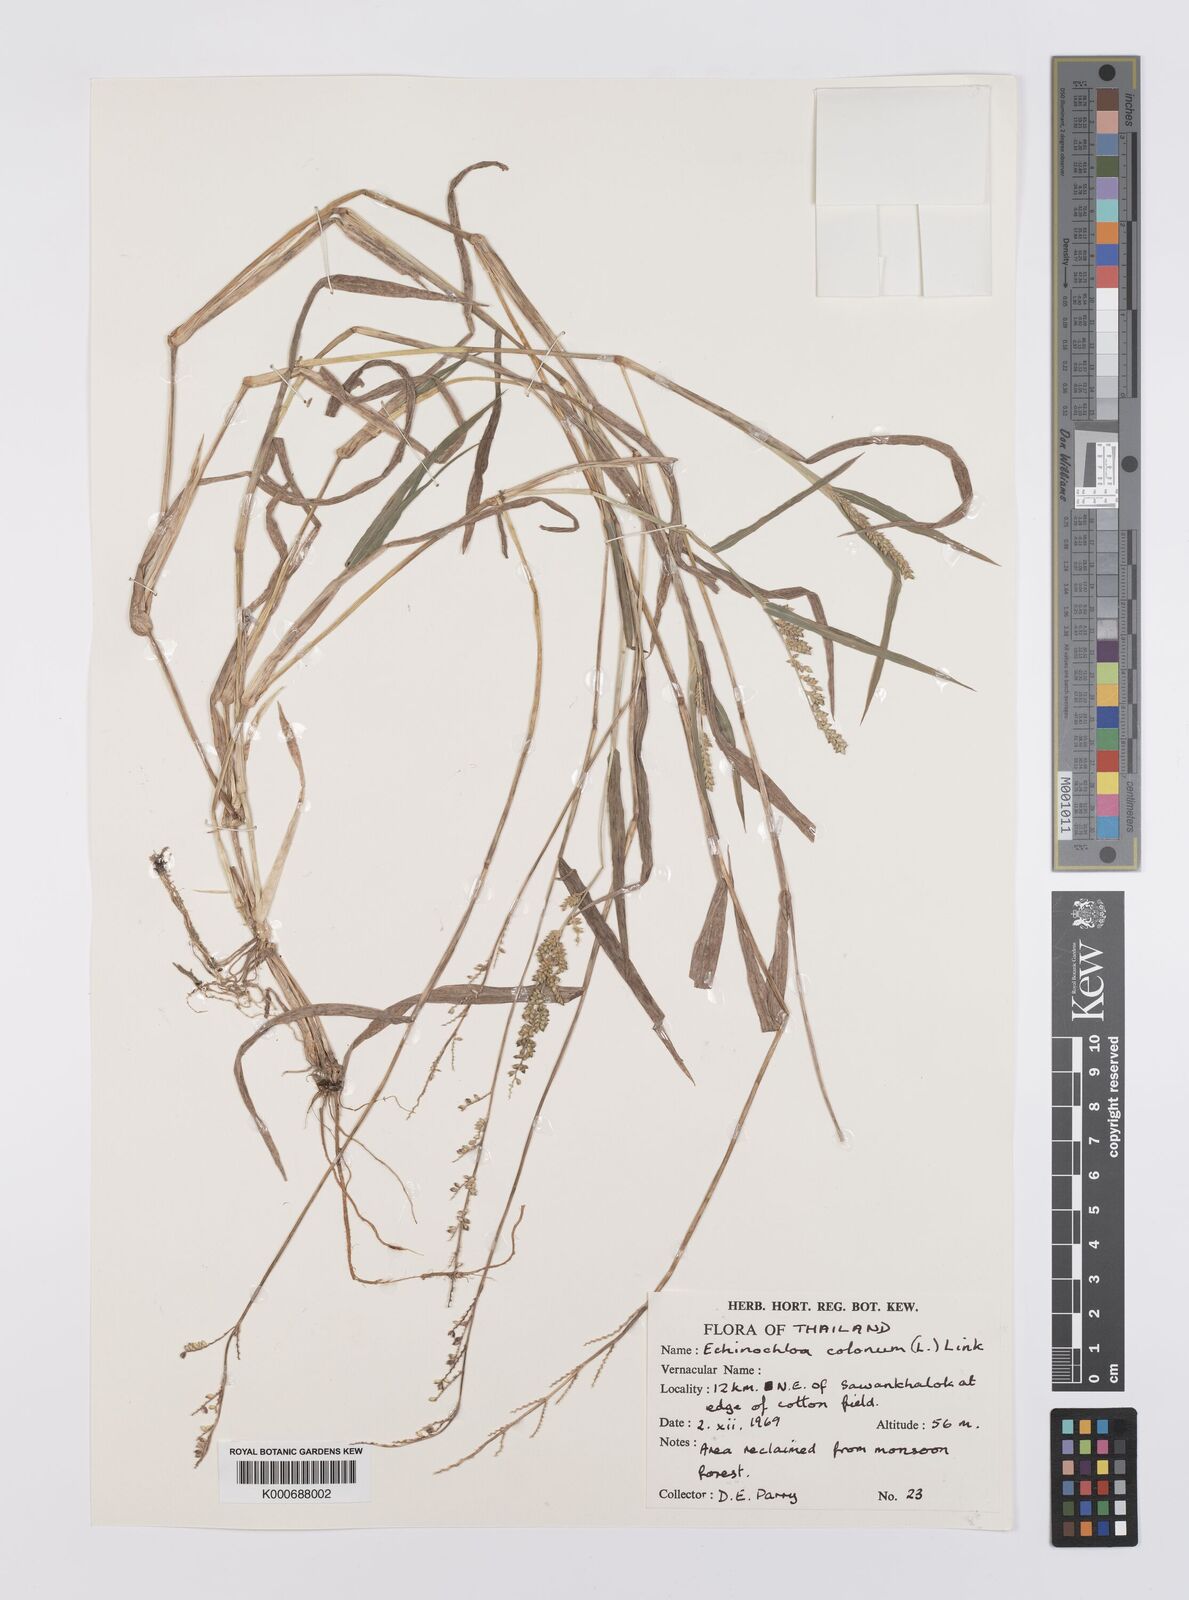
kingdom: Plantae
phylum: Tracheophyta
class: Liliopsida
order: Poales
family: Poaceae
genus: Echinochloa
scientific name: Echinochloa colonum
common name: Jungle rice
